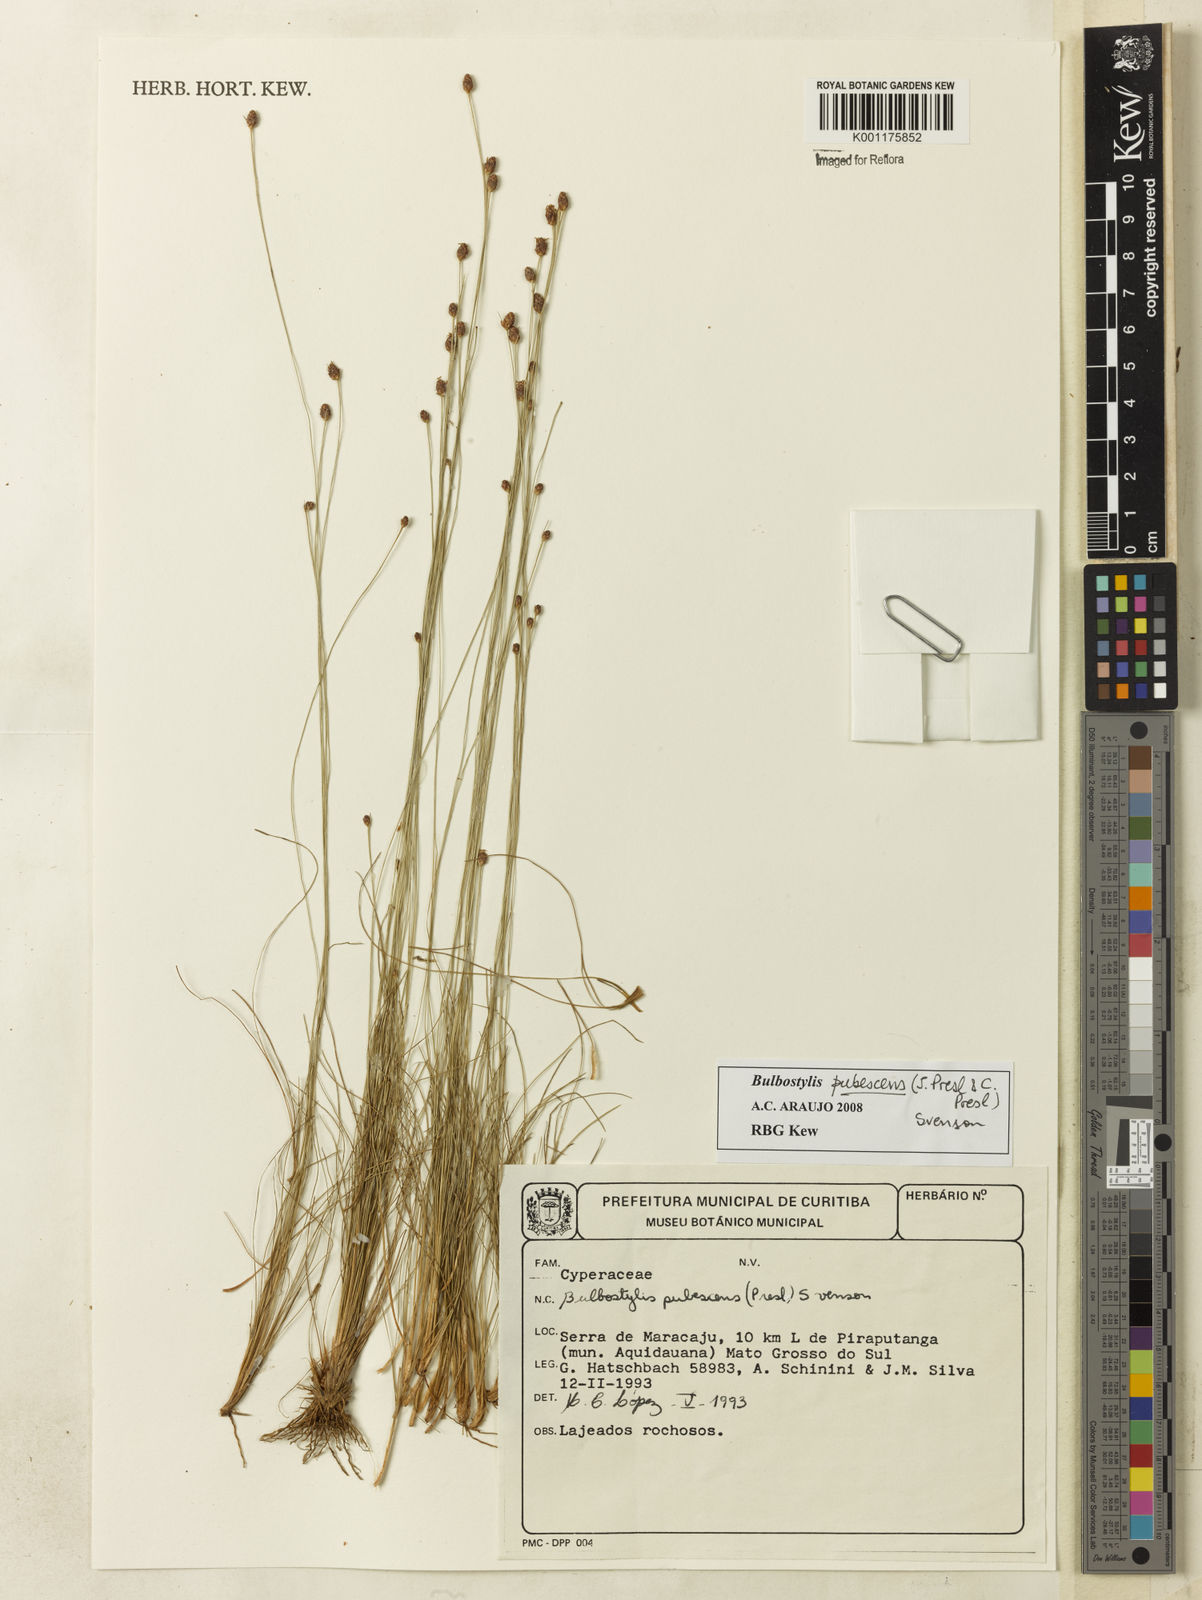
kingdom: Plantae
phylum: Tracheophyta
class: Liliopsida
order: Poales
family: Cyperaceae
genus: Bulbostylis
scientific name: Bulbostylis pubescens
